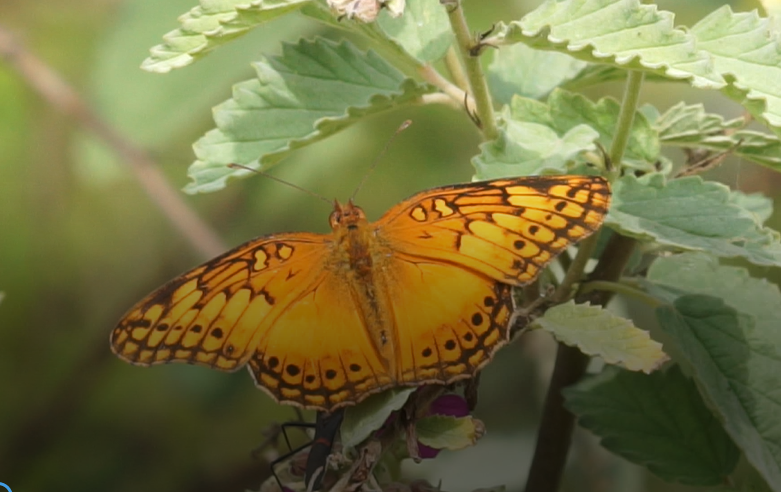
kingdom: Animalia
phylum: Arthropoda
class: Insecta
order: Lepidoptera
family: Nymphalidae
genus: Euptoieta
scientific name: Euptoieta hegesia
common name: Mexican Fritillary
